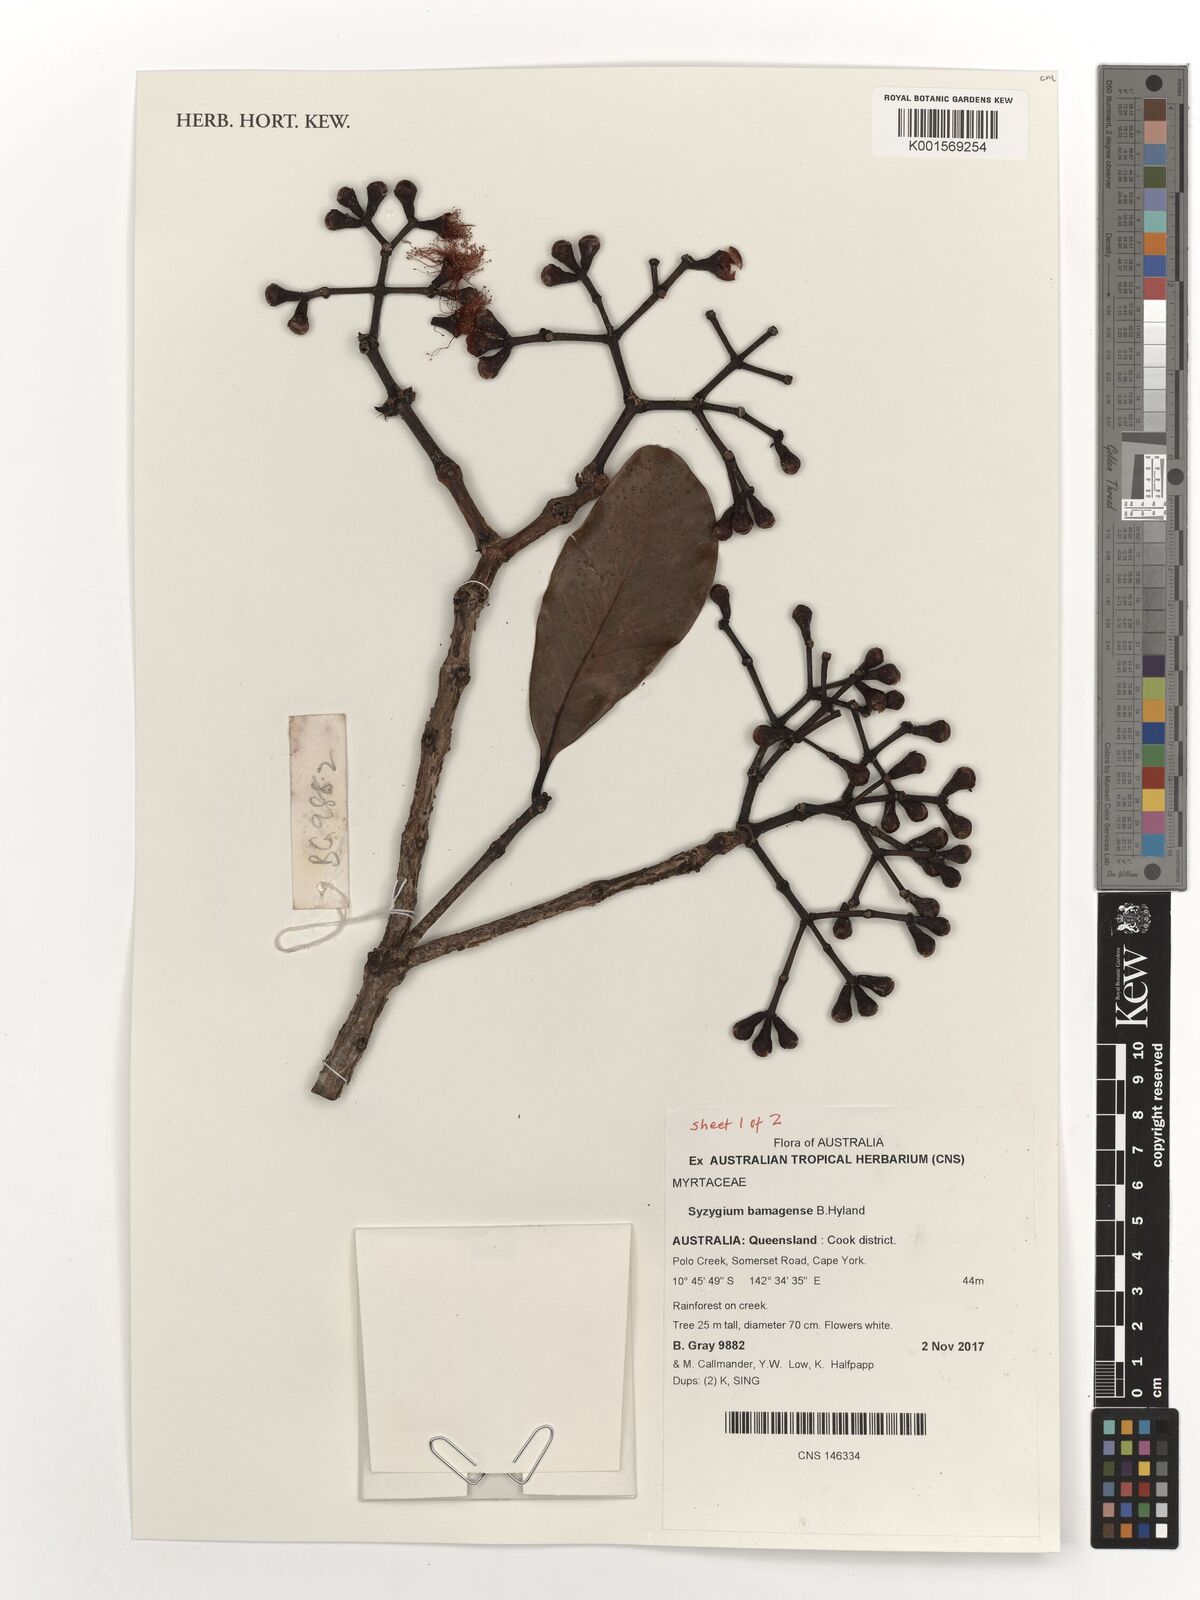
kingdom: Plantae
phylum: Tracheophyta
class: Magnoliopsida
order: Myrtales
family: Myrtaceae
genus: Syzygium
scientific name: Syzygium bamagense
